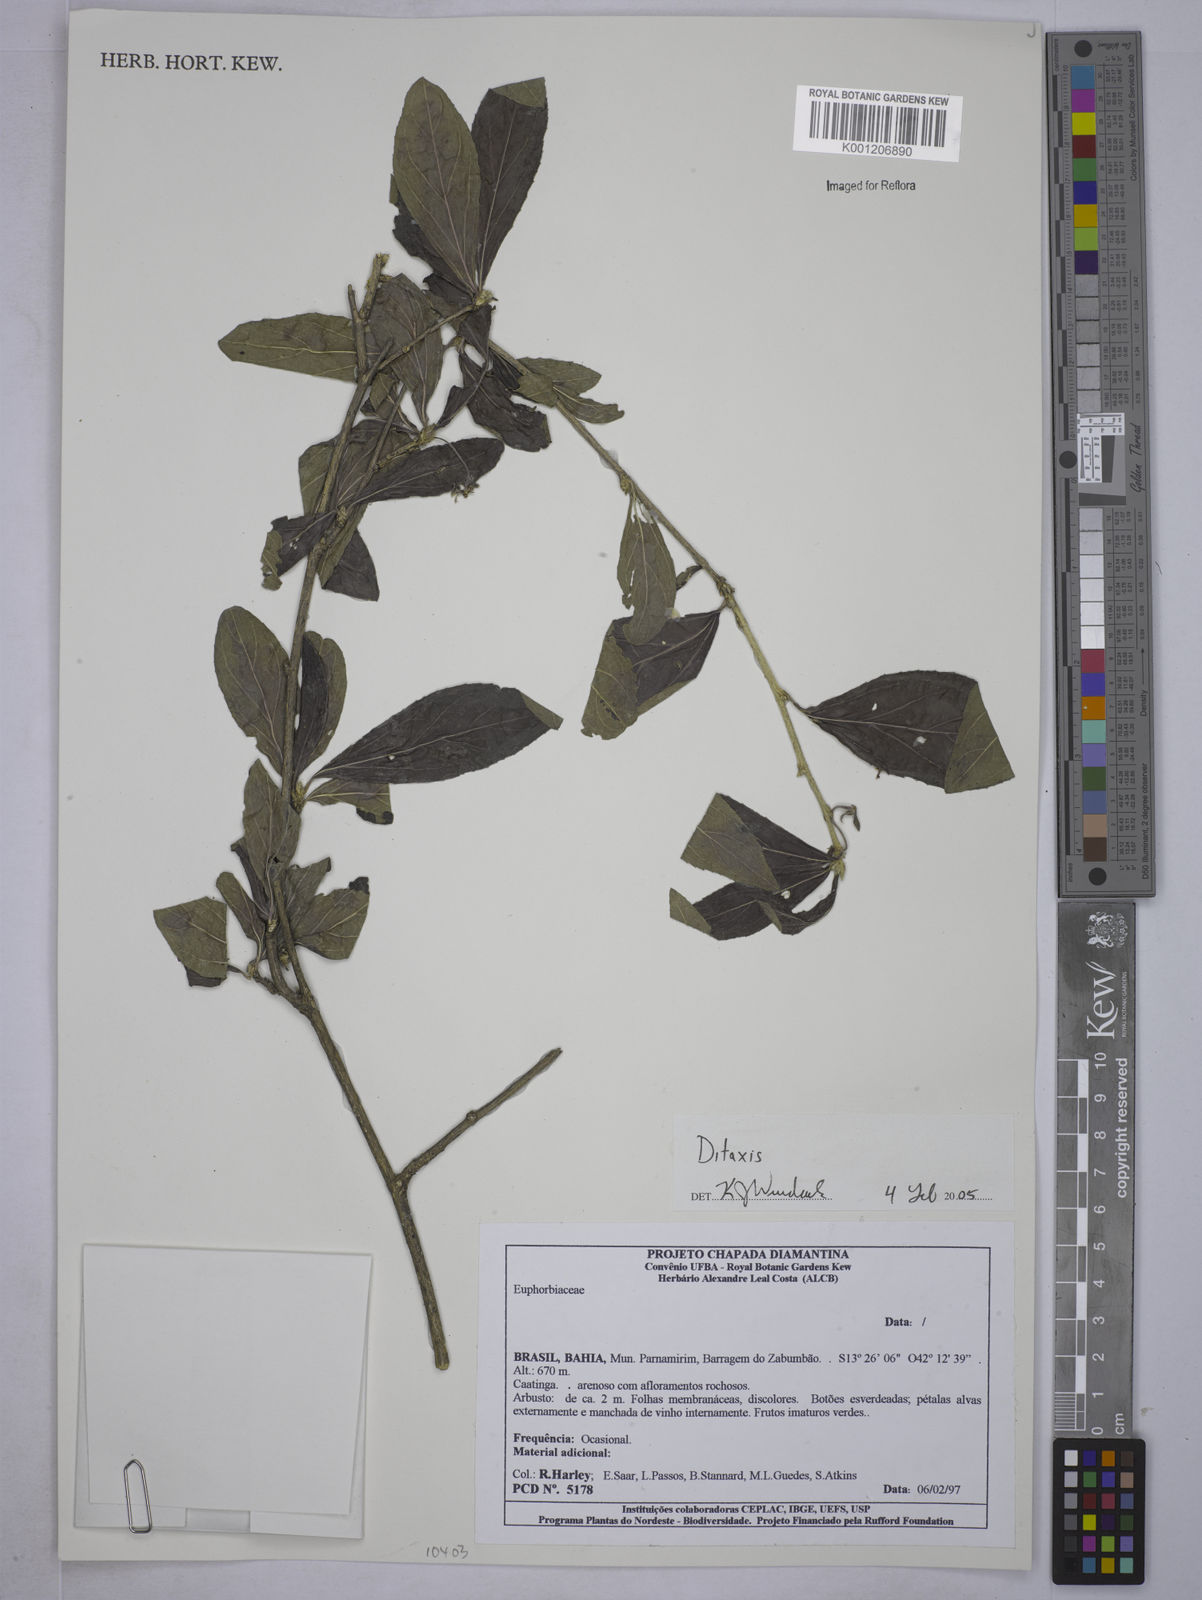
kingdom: Plantae
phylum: Tracheophyta
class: Magnoliopsida
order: Malpighiales
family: Euphorbiaceae
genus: Ditaxis
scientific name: Ditaxis
